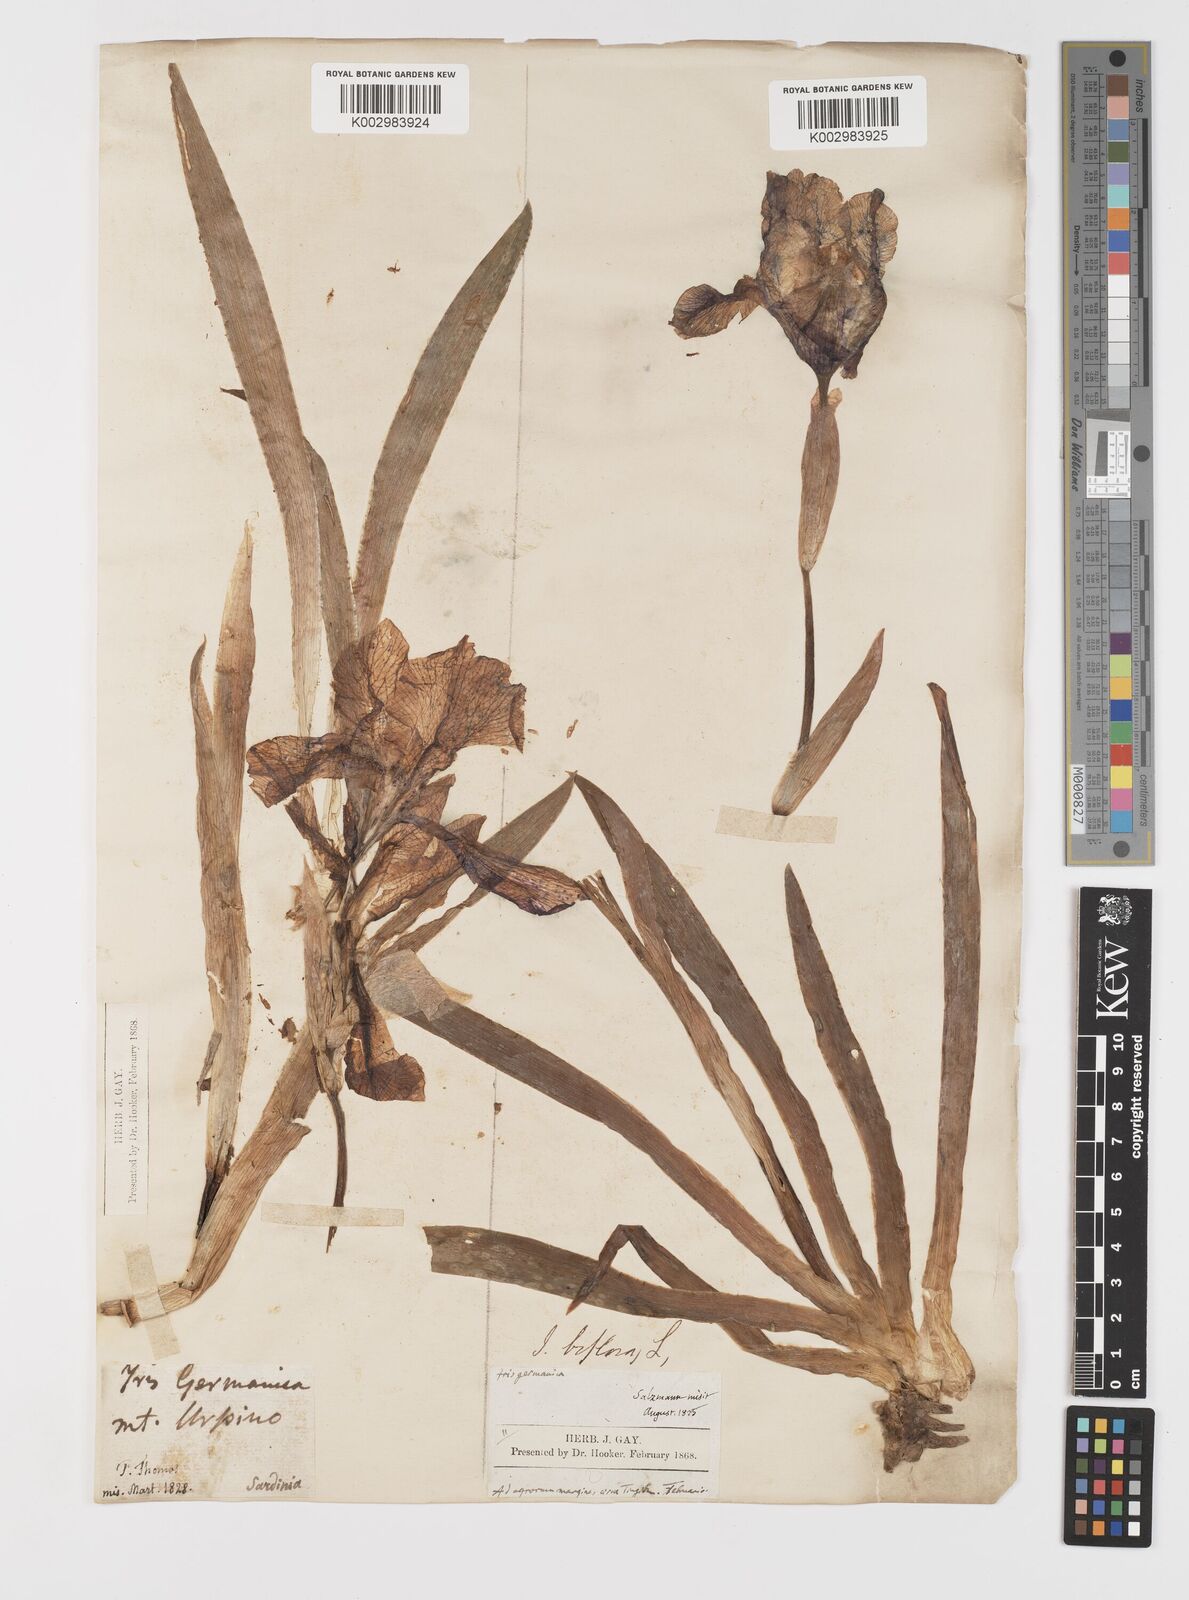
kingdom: Plantae
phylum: Tracheophyta
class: Liliopsida
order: Asparagales
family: Iridaceae
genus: Iris
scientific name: Iris germanica
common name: German iris
